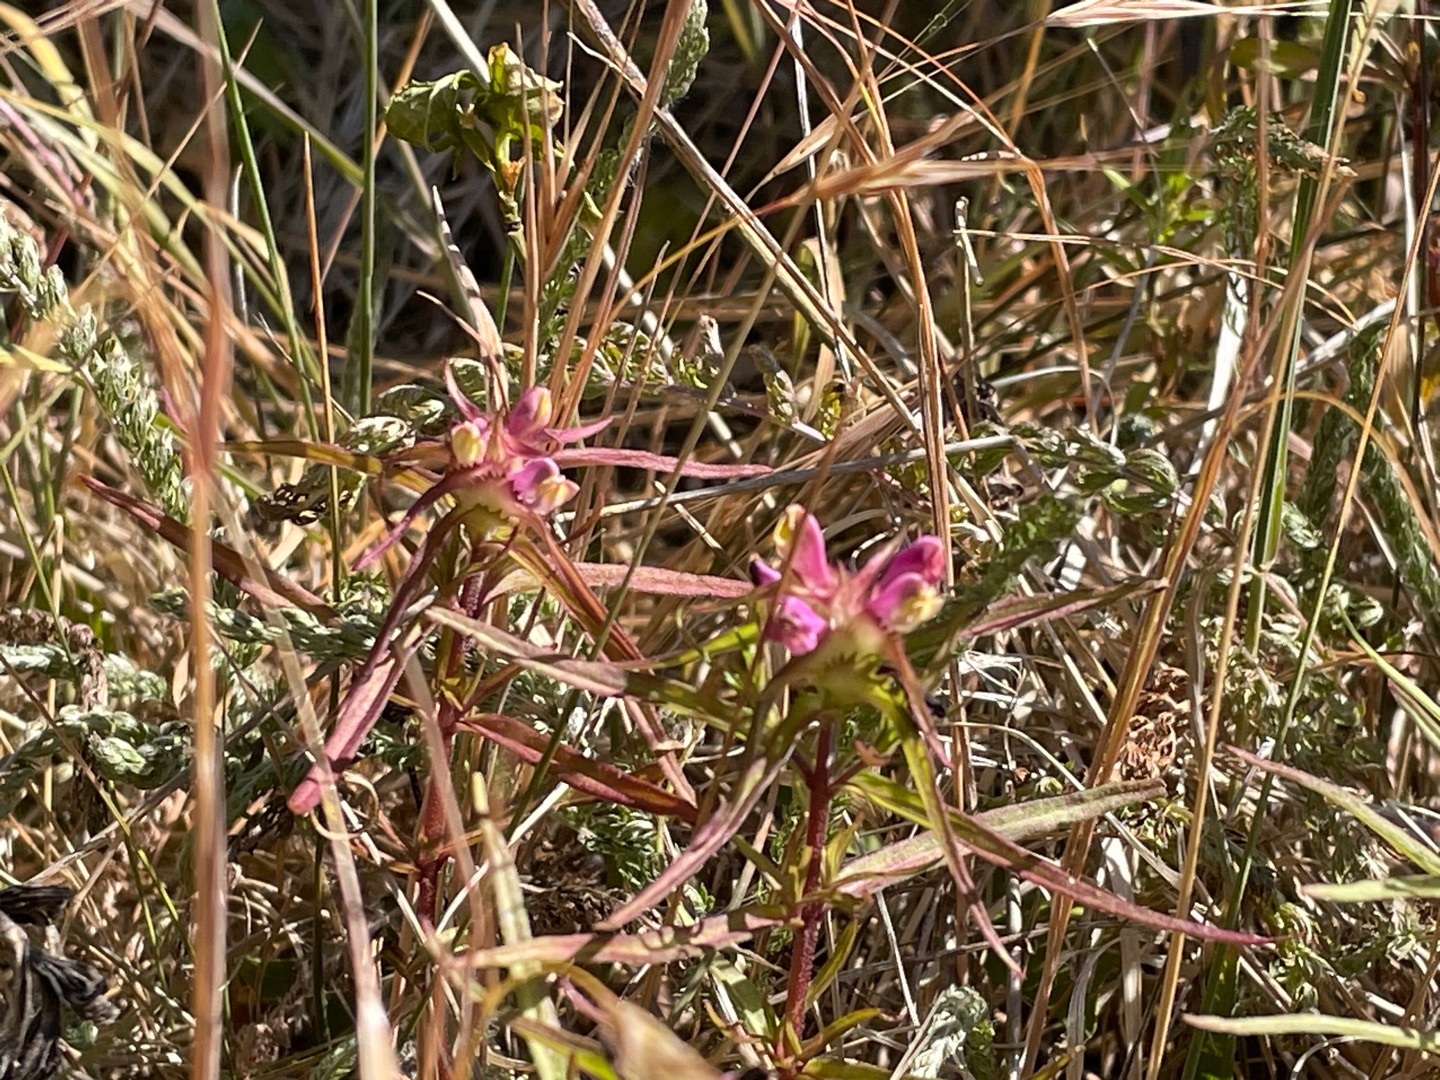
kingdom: Plantae
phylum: Tracheophyta
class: Magnoliopsida
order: Lamiales
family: Orobanchaceae
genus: Melampyrum
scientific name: Melampyrum cristatum
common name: Kantet kohvede
